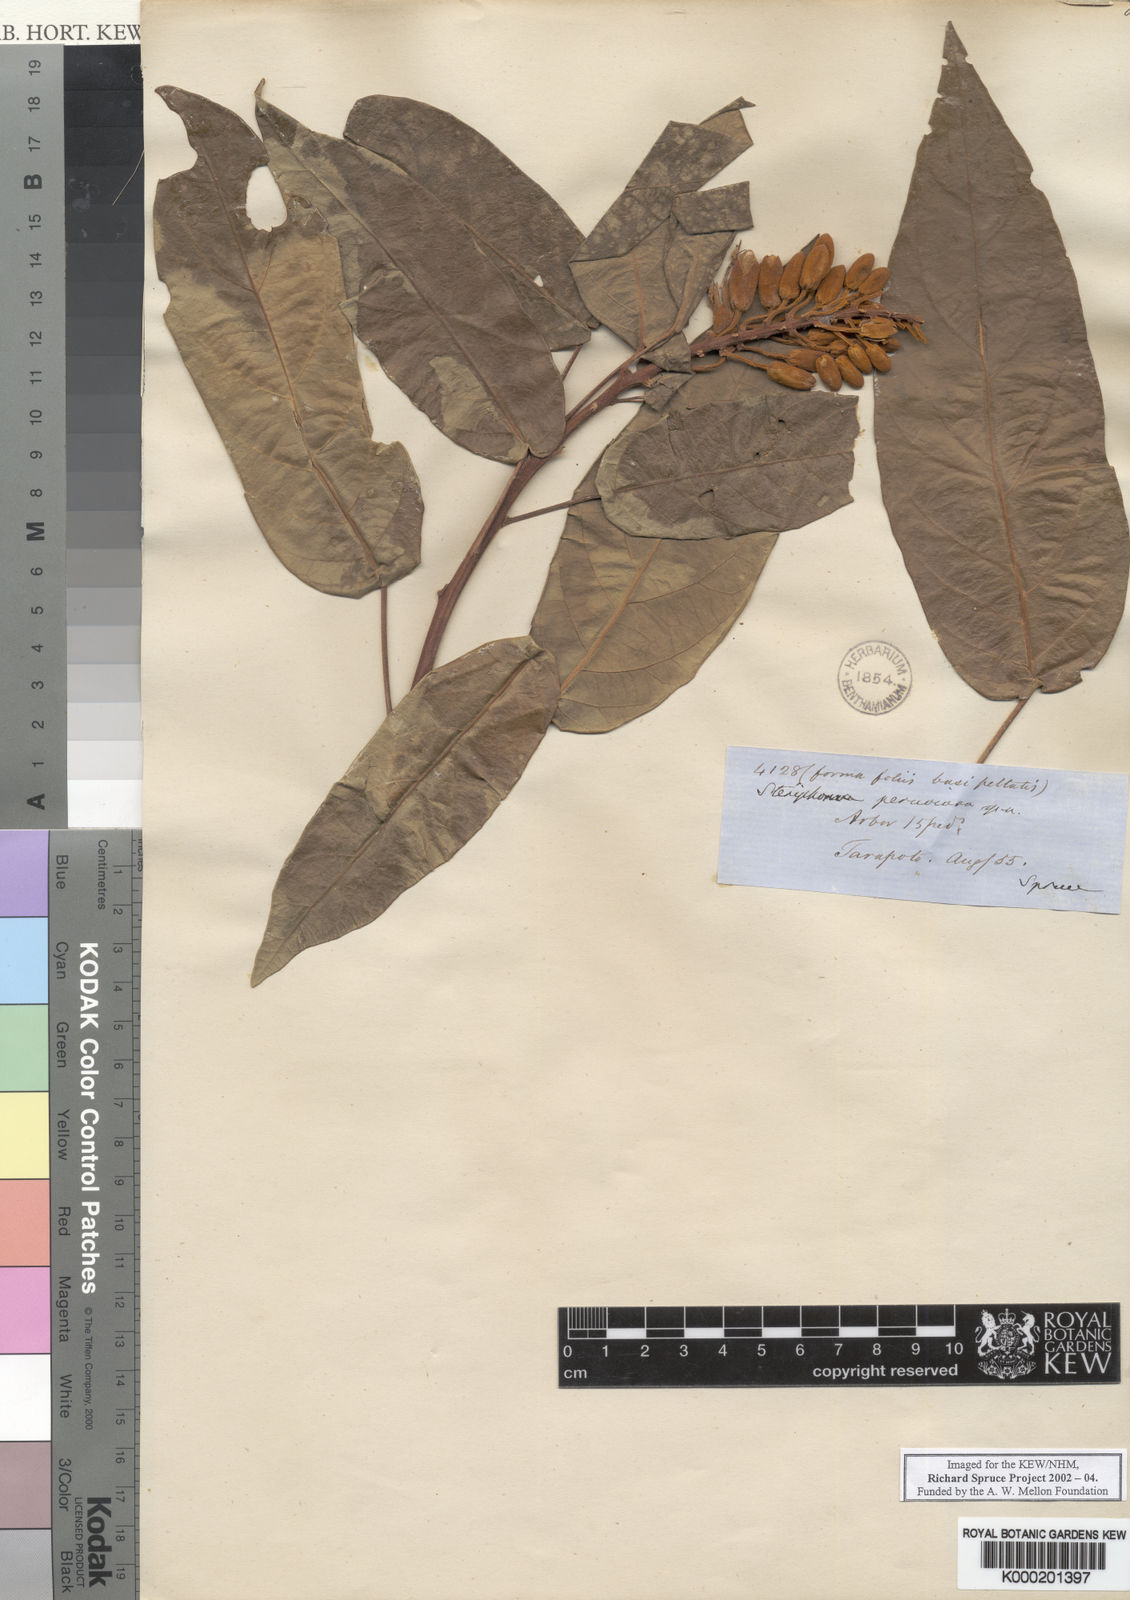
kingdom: Plantae
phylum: Tracheophyta
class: Magnoliopsida
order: Brassicales
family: Capparaceae
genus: Steriphoma
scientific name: Steriphoma peruvianum
